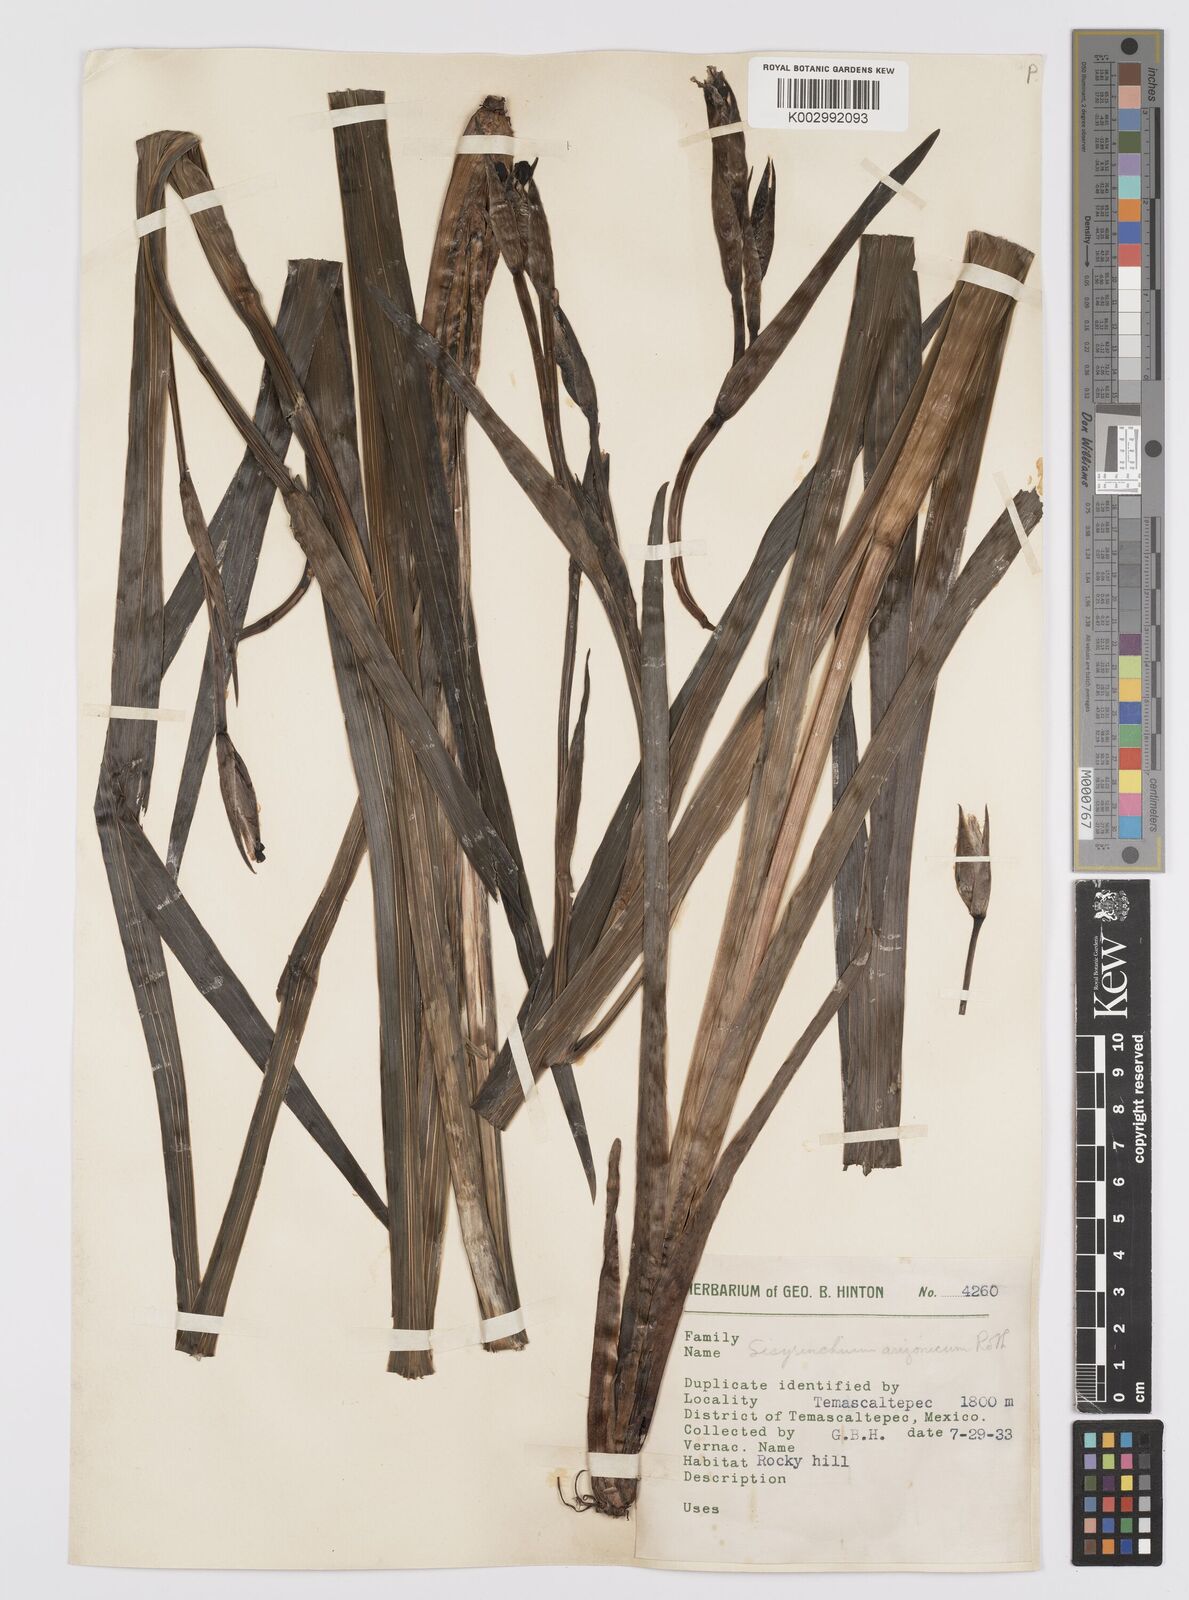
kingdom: Plantae
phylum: Tracheophyta
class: Liliopsida
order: Asparagales
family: Iridaceae
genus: Sisyrinchium
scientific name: Sisyrinchium arizonicum
